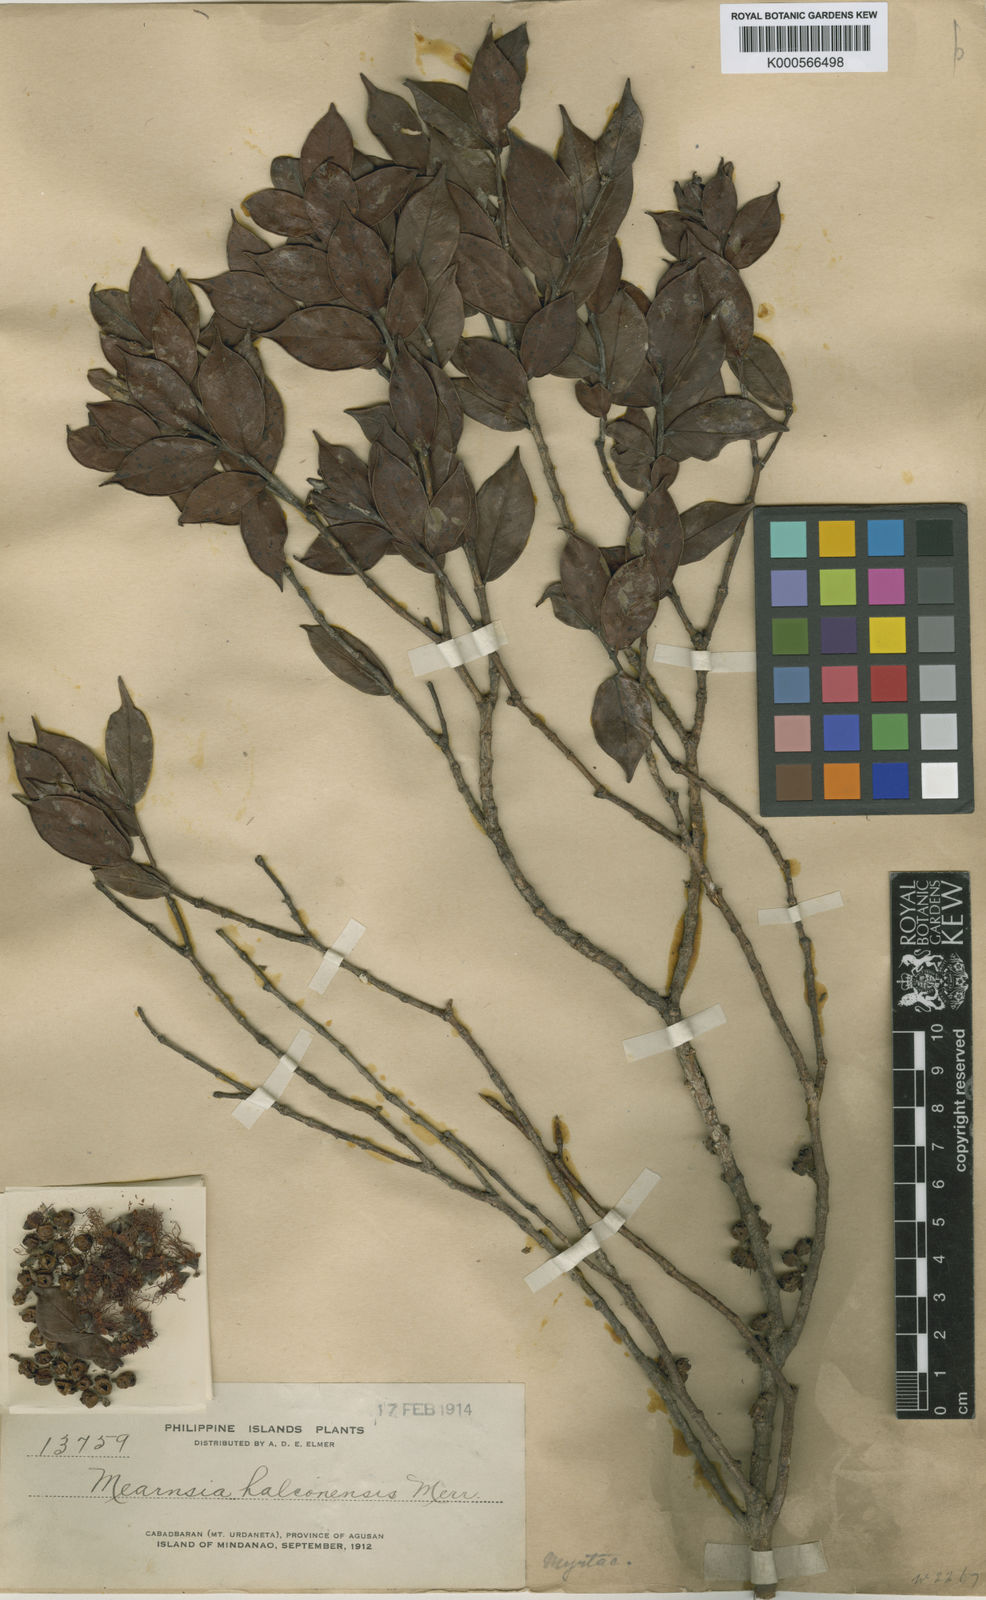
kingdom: Plantae
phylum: Tracheophyta
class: Magnoliopsida
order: Myrtales
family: Myrtaceae
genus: Metrosideros
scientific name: Metrosideros halconensis
